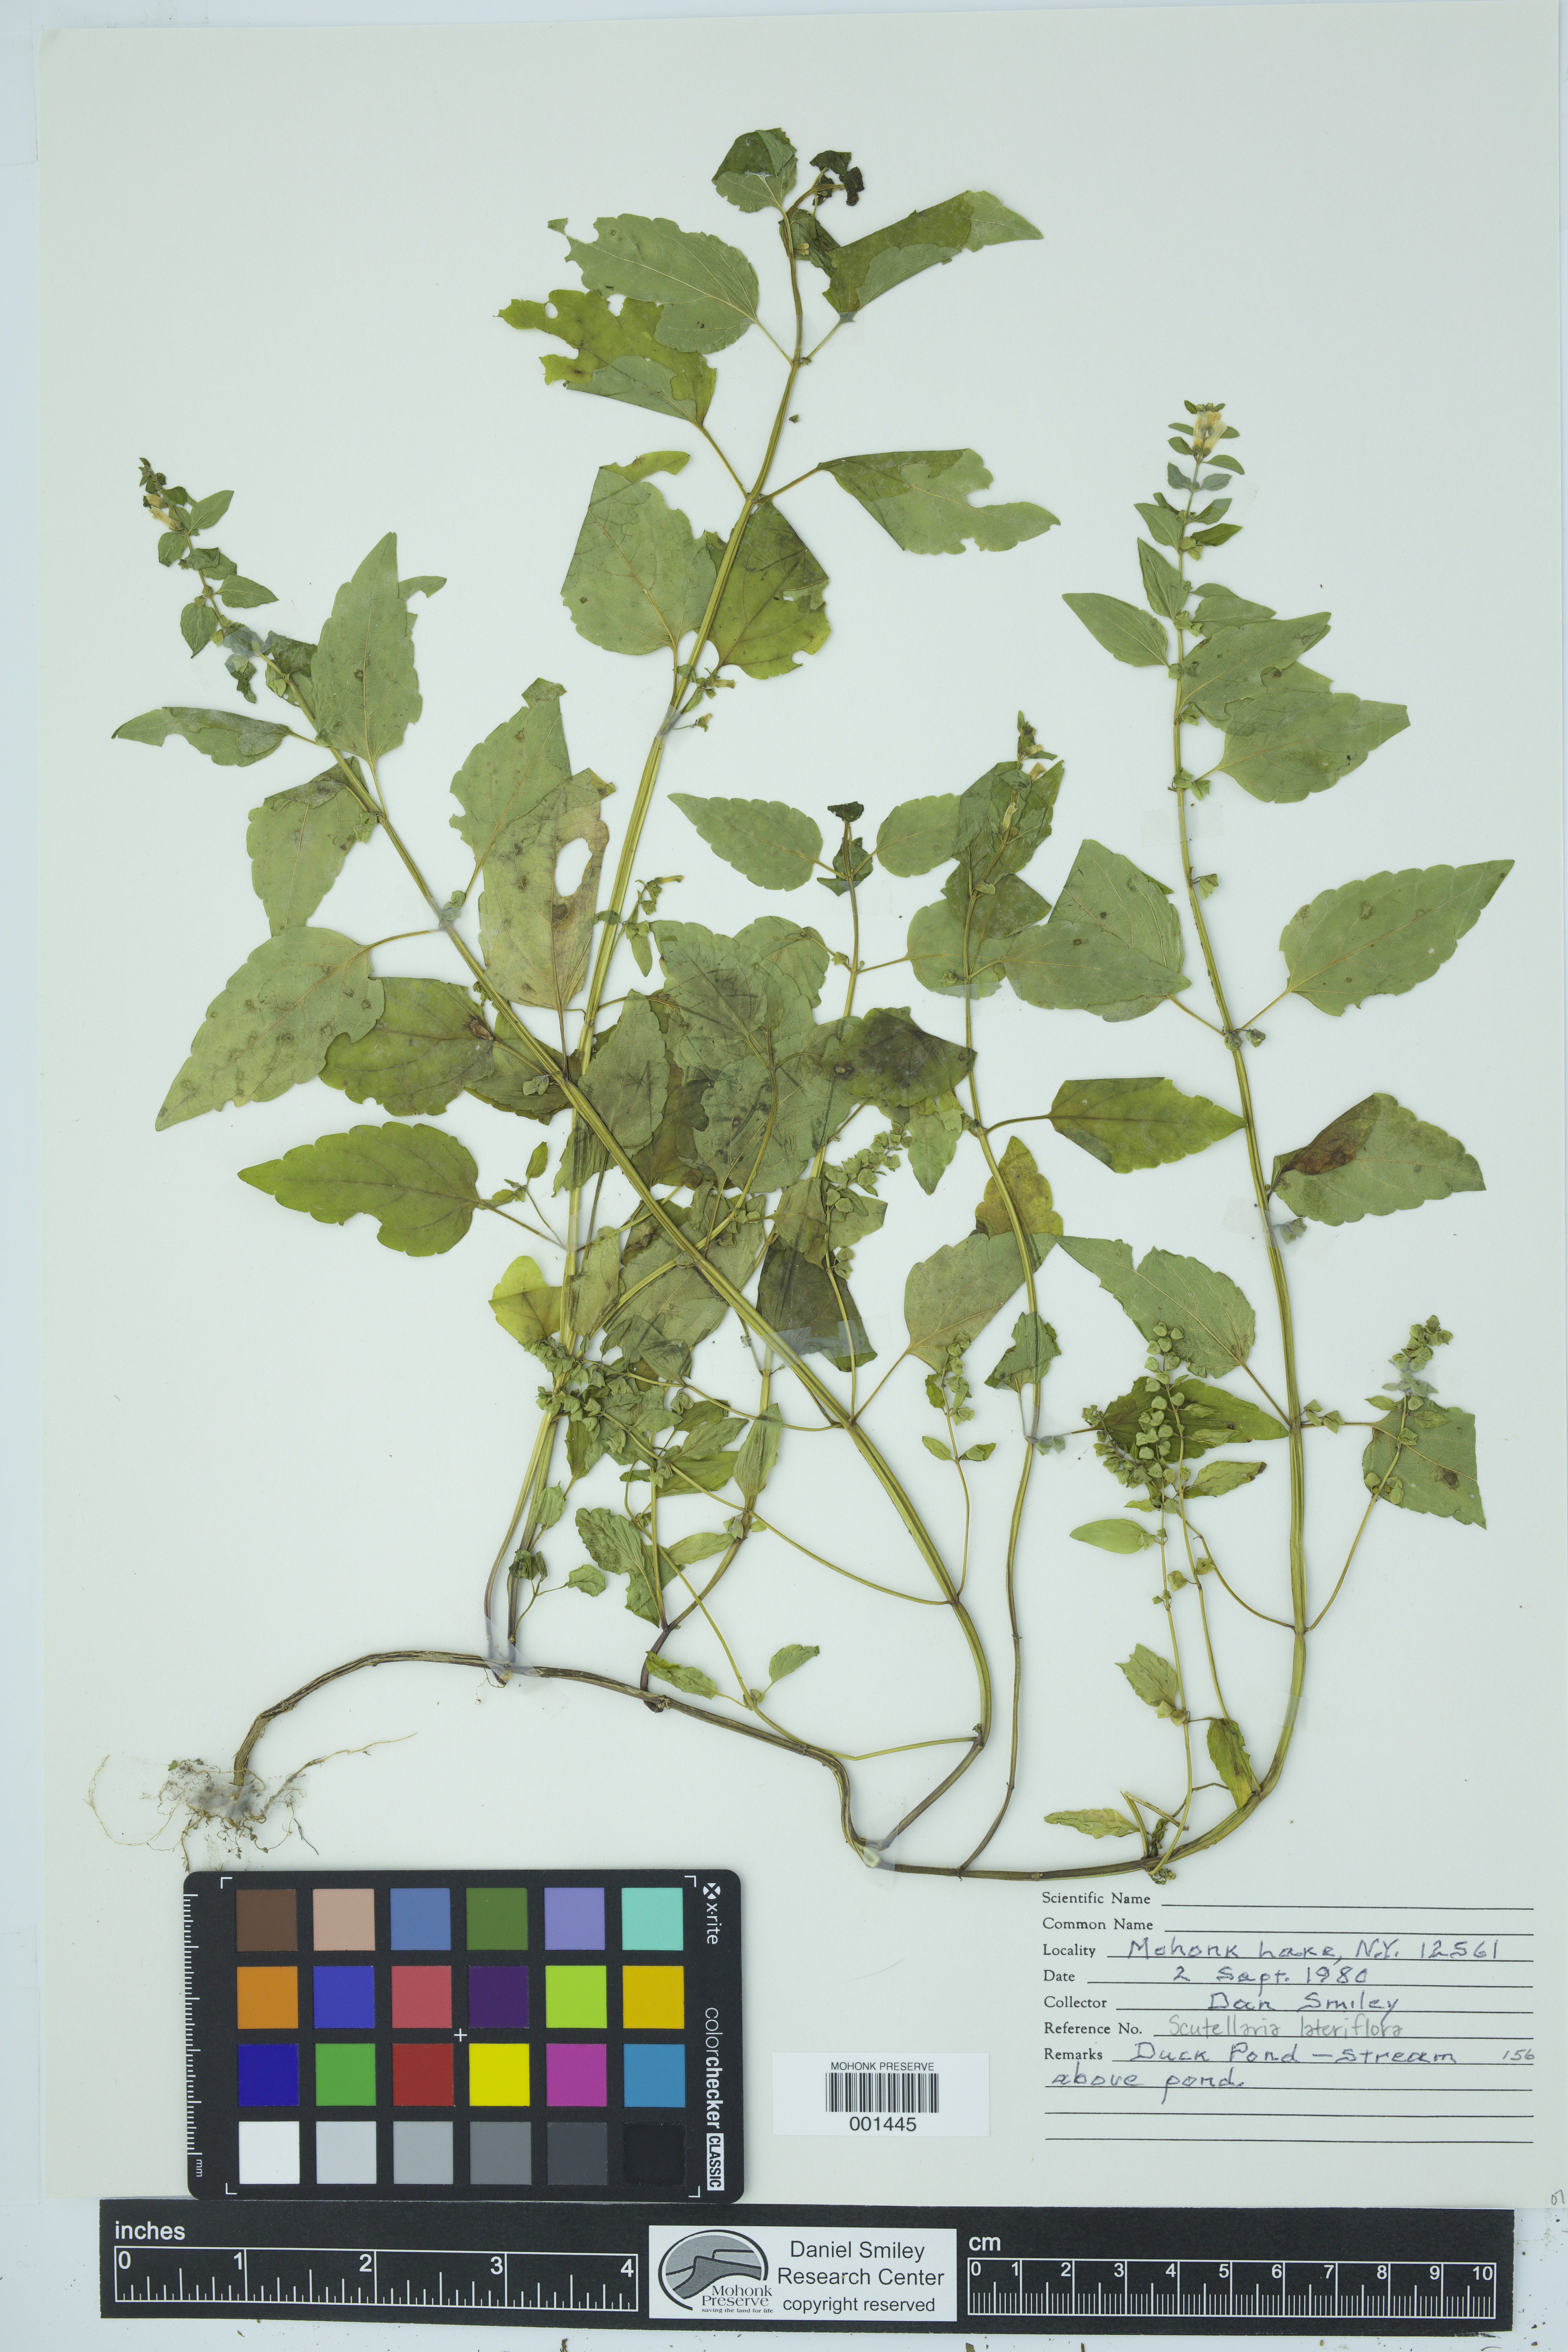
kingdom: Plantae
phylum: Tracheophyta
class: Magnoliopsida
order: Lamiales
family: Lamiaceae
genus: Scutellaria
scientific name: Scutellaria lateriflora
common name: Blue skullcap
